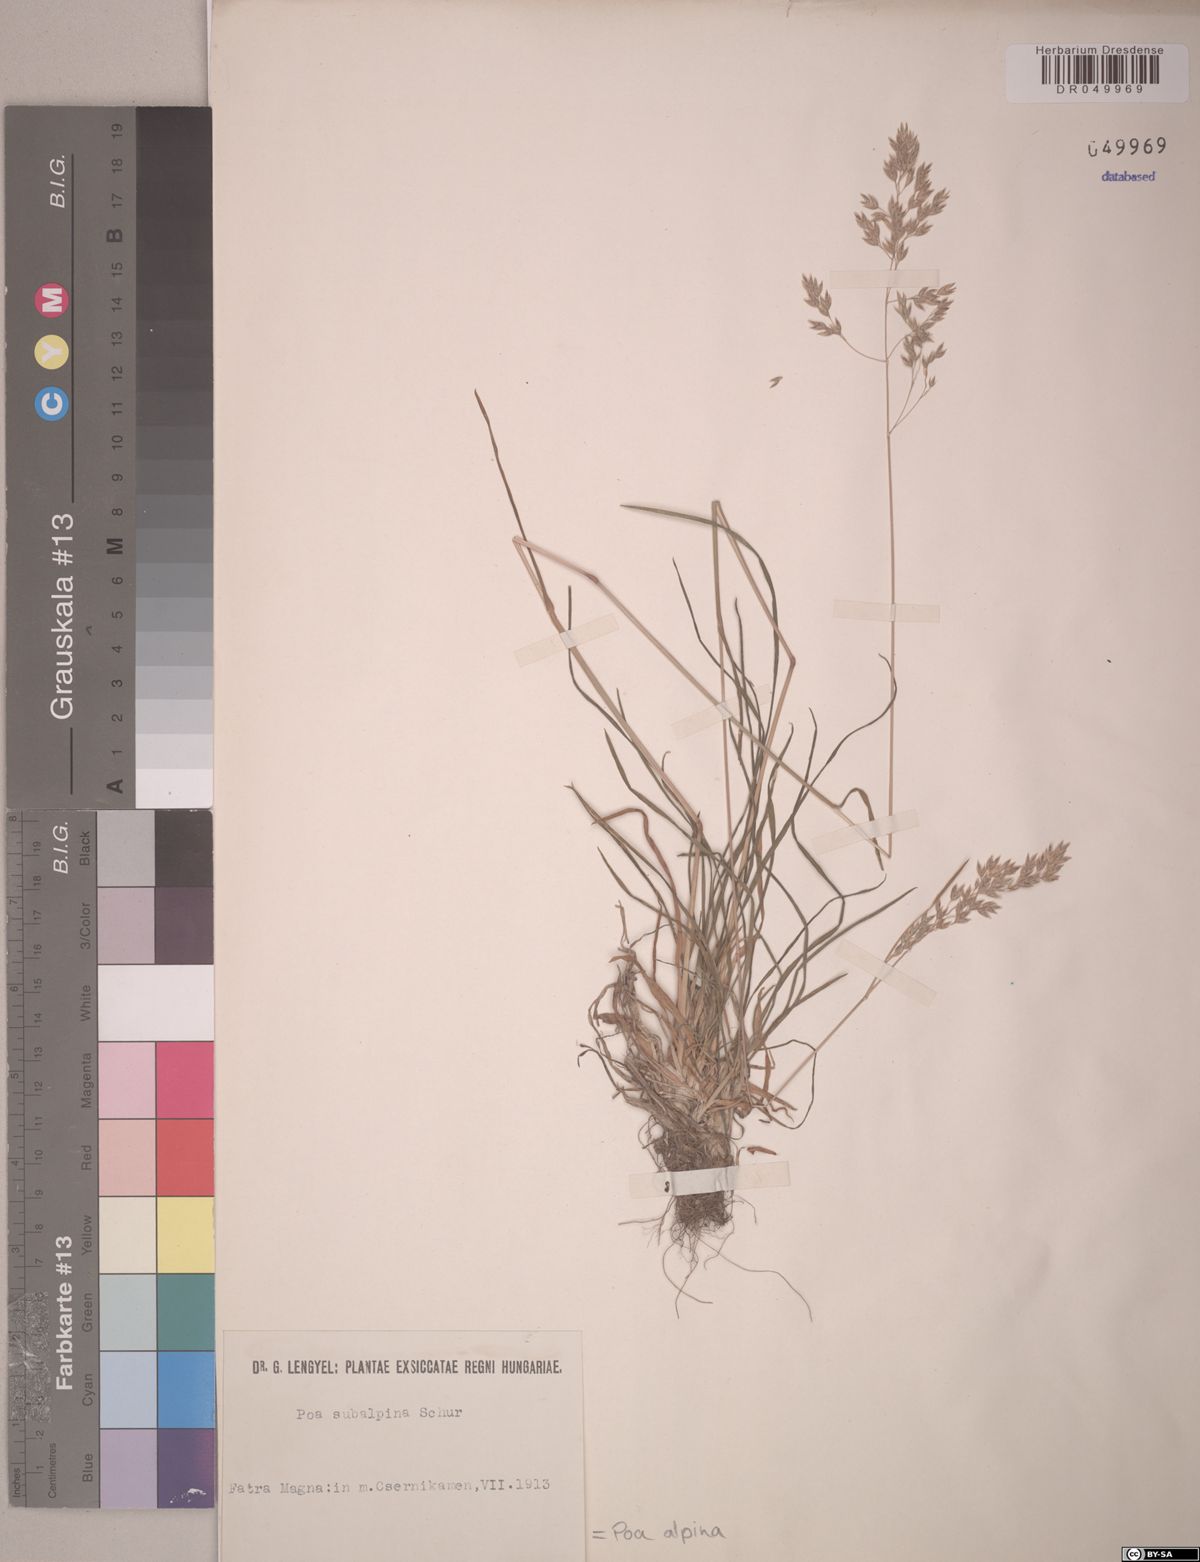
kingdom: Plantae
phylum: Tracheophyta
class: Liliopsida
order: Poales
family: Poaceae
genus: Poa
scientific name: Poa alpina
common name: Alpine bluegrass
